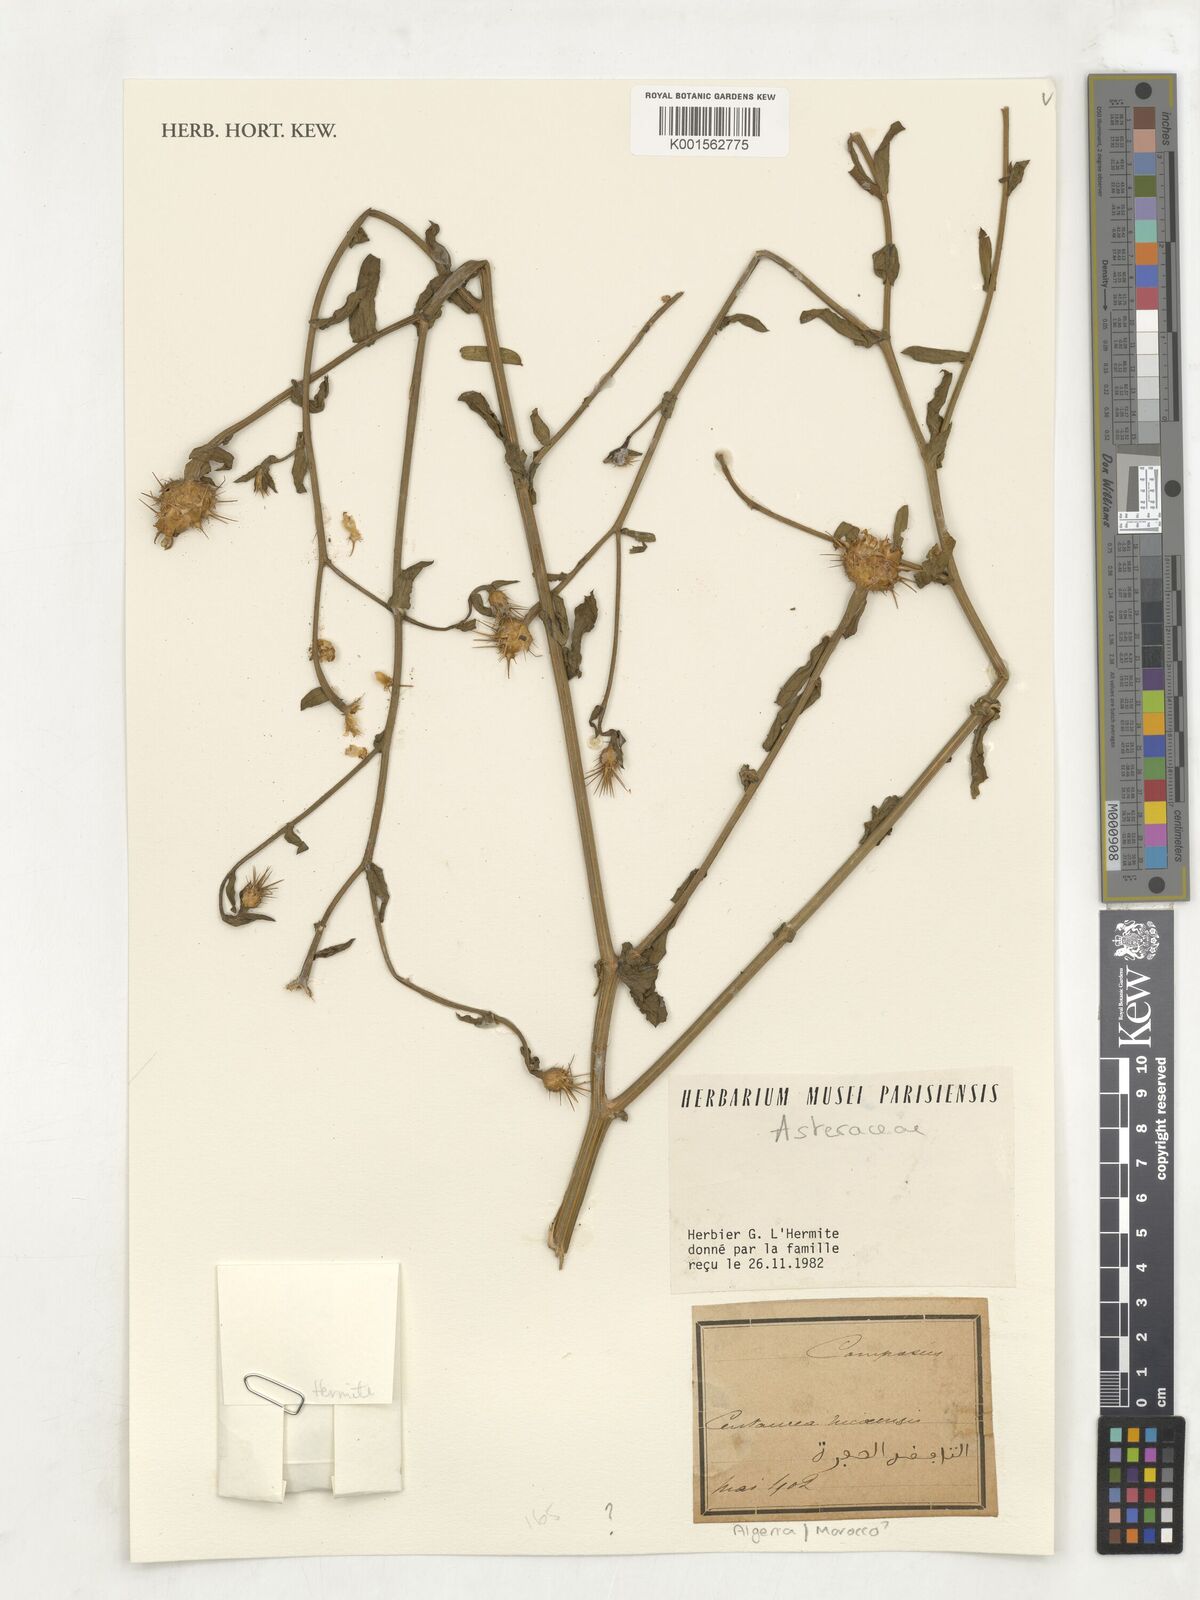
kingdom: Plantae
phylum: Tracheophyta
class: Magnoliopsida
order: Asterales
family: Asteraceae
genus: Centaurea
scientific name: Centaurea sicula
